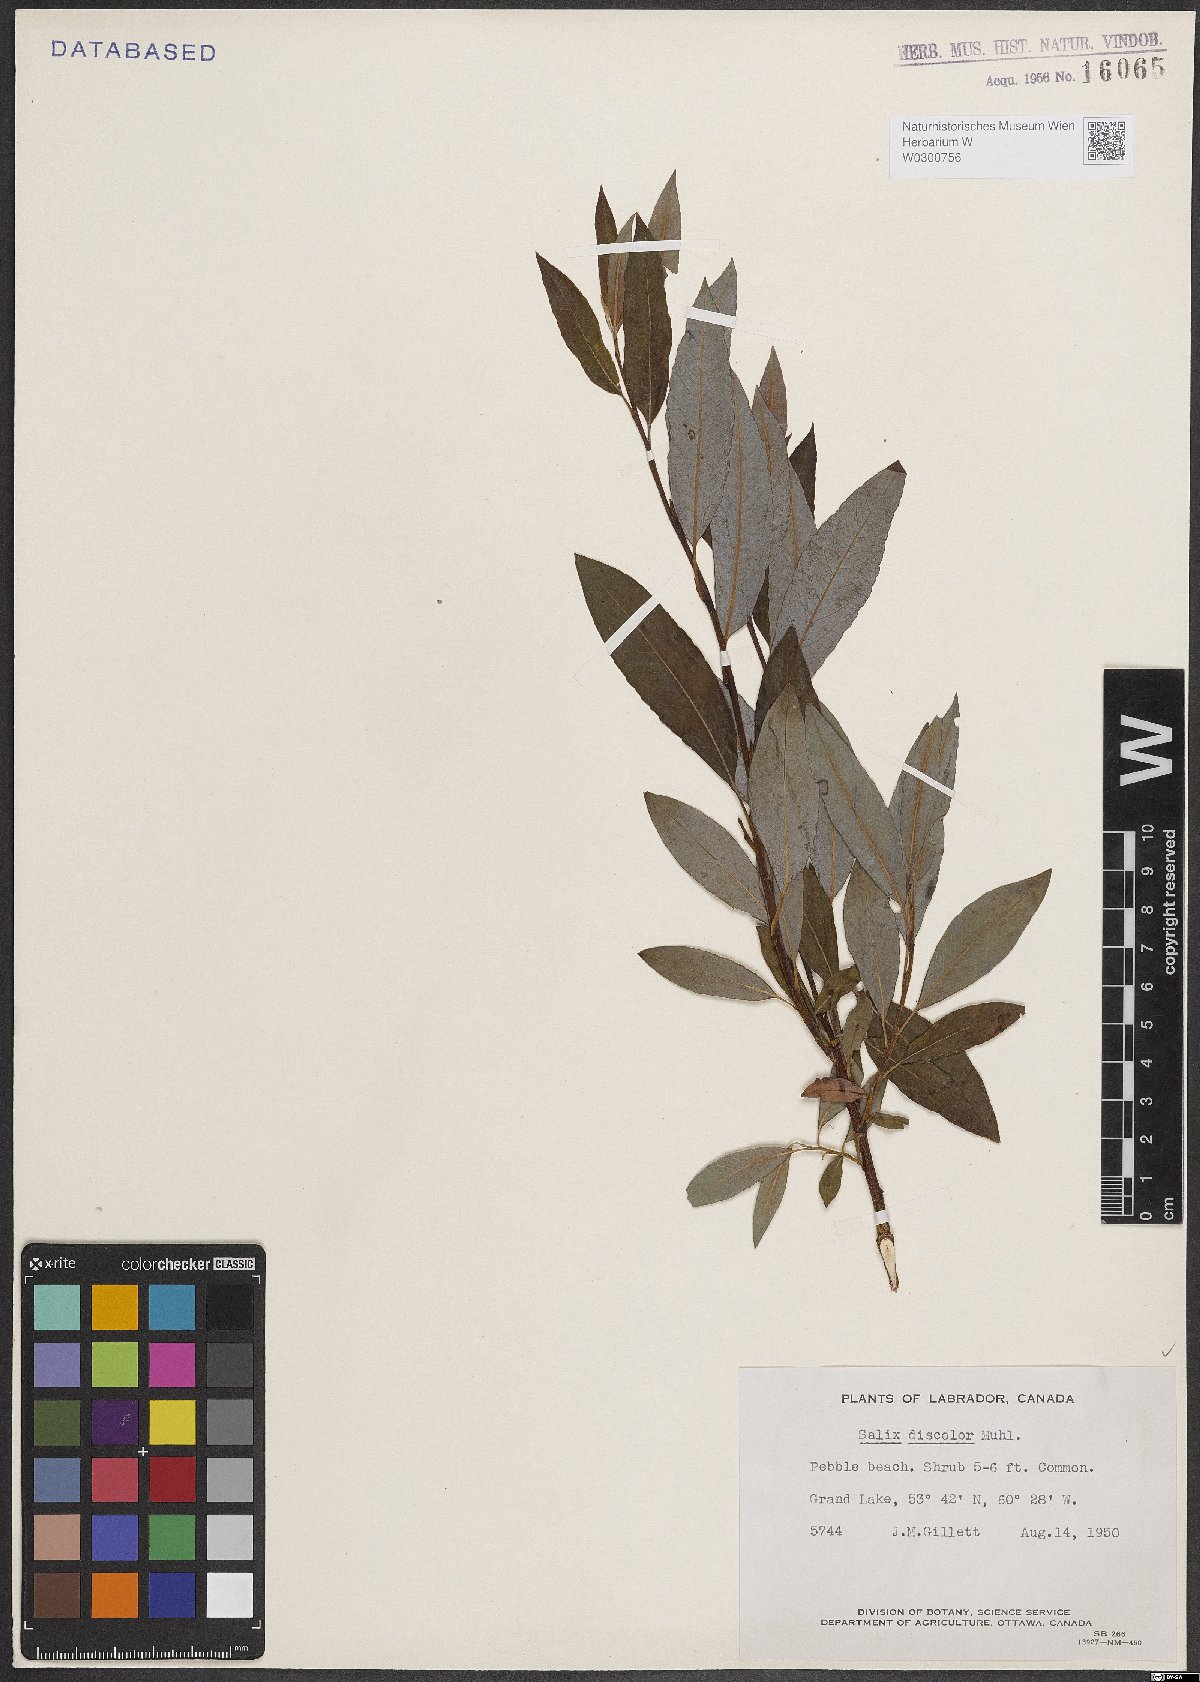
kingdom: Plantae
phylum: Tracheophyta
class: Magnoliopsida
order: Malpighiales
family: Salicaceae
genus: Salix
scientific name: Salix discolor
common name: Glaucous willow
